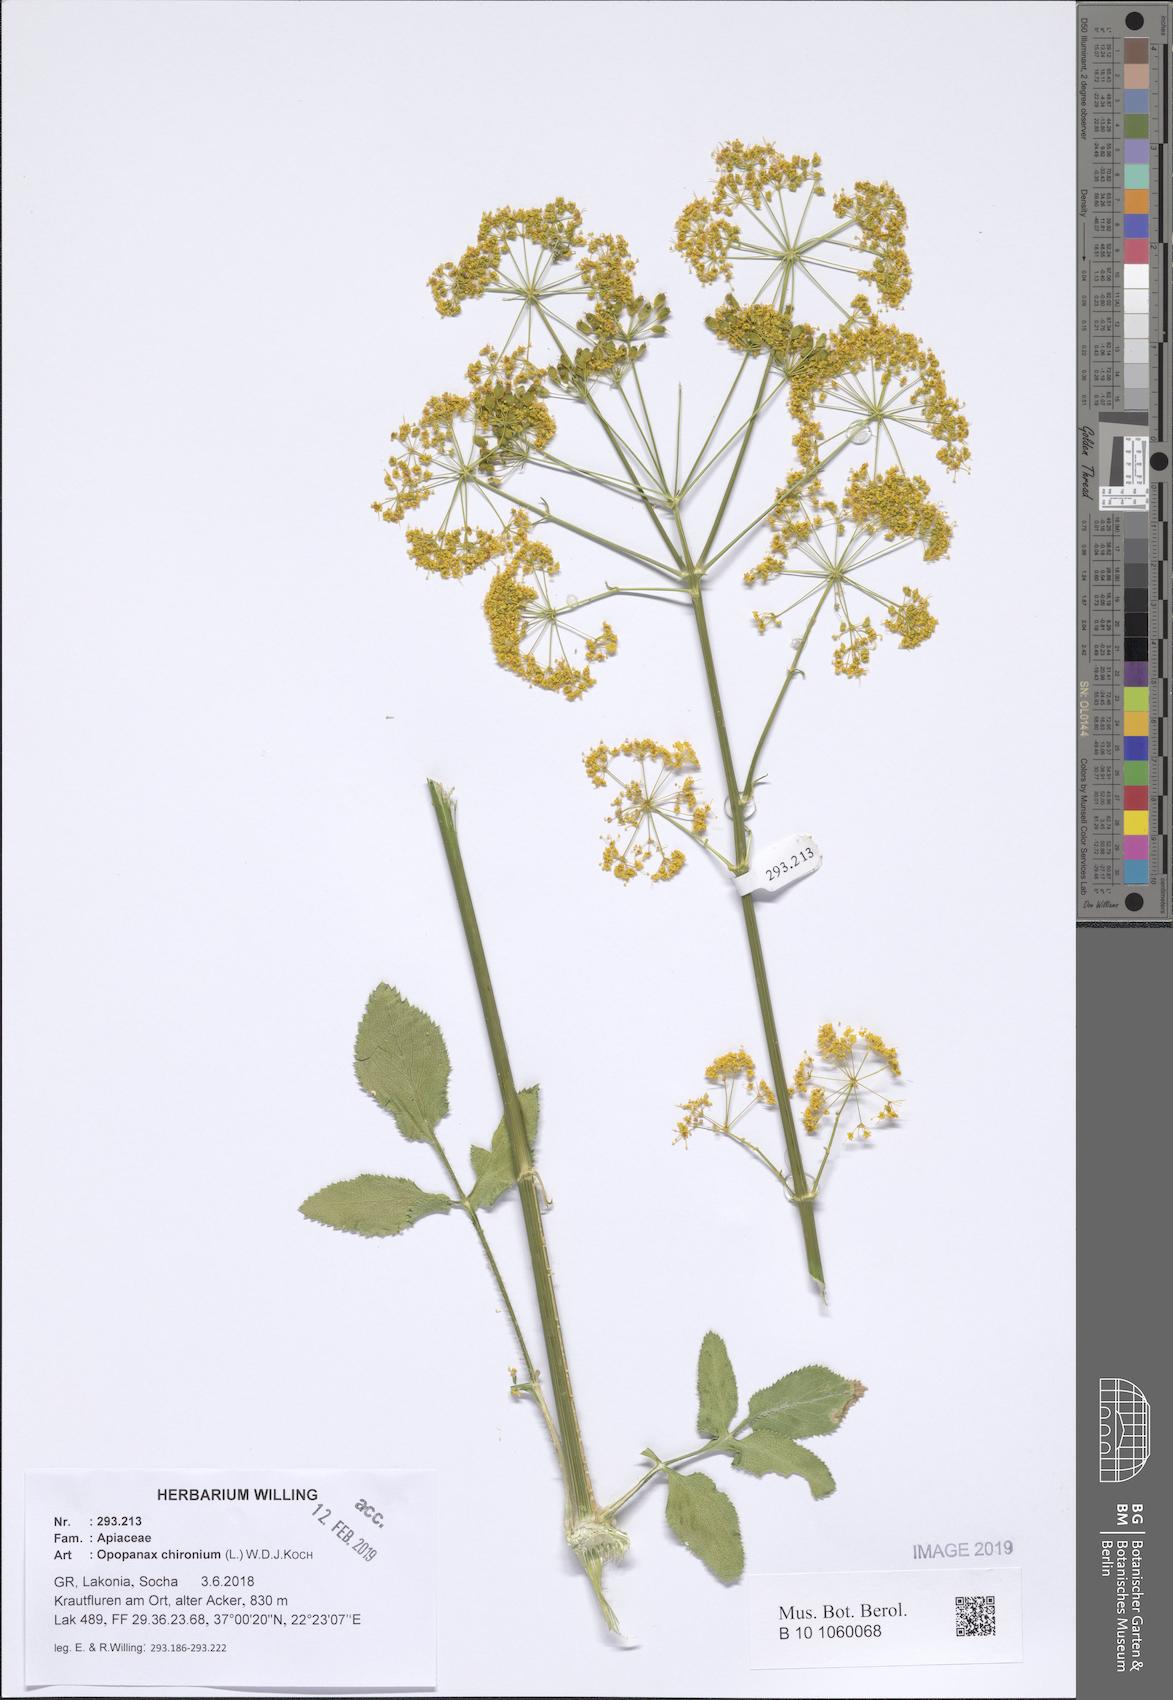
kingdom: Plantae
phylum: Tracheophyta
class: Magnoliopsida
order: Apiales
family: Apiaceae
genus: Opopanax
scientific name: Opopanax chironium
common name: Hercules-all-heal
